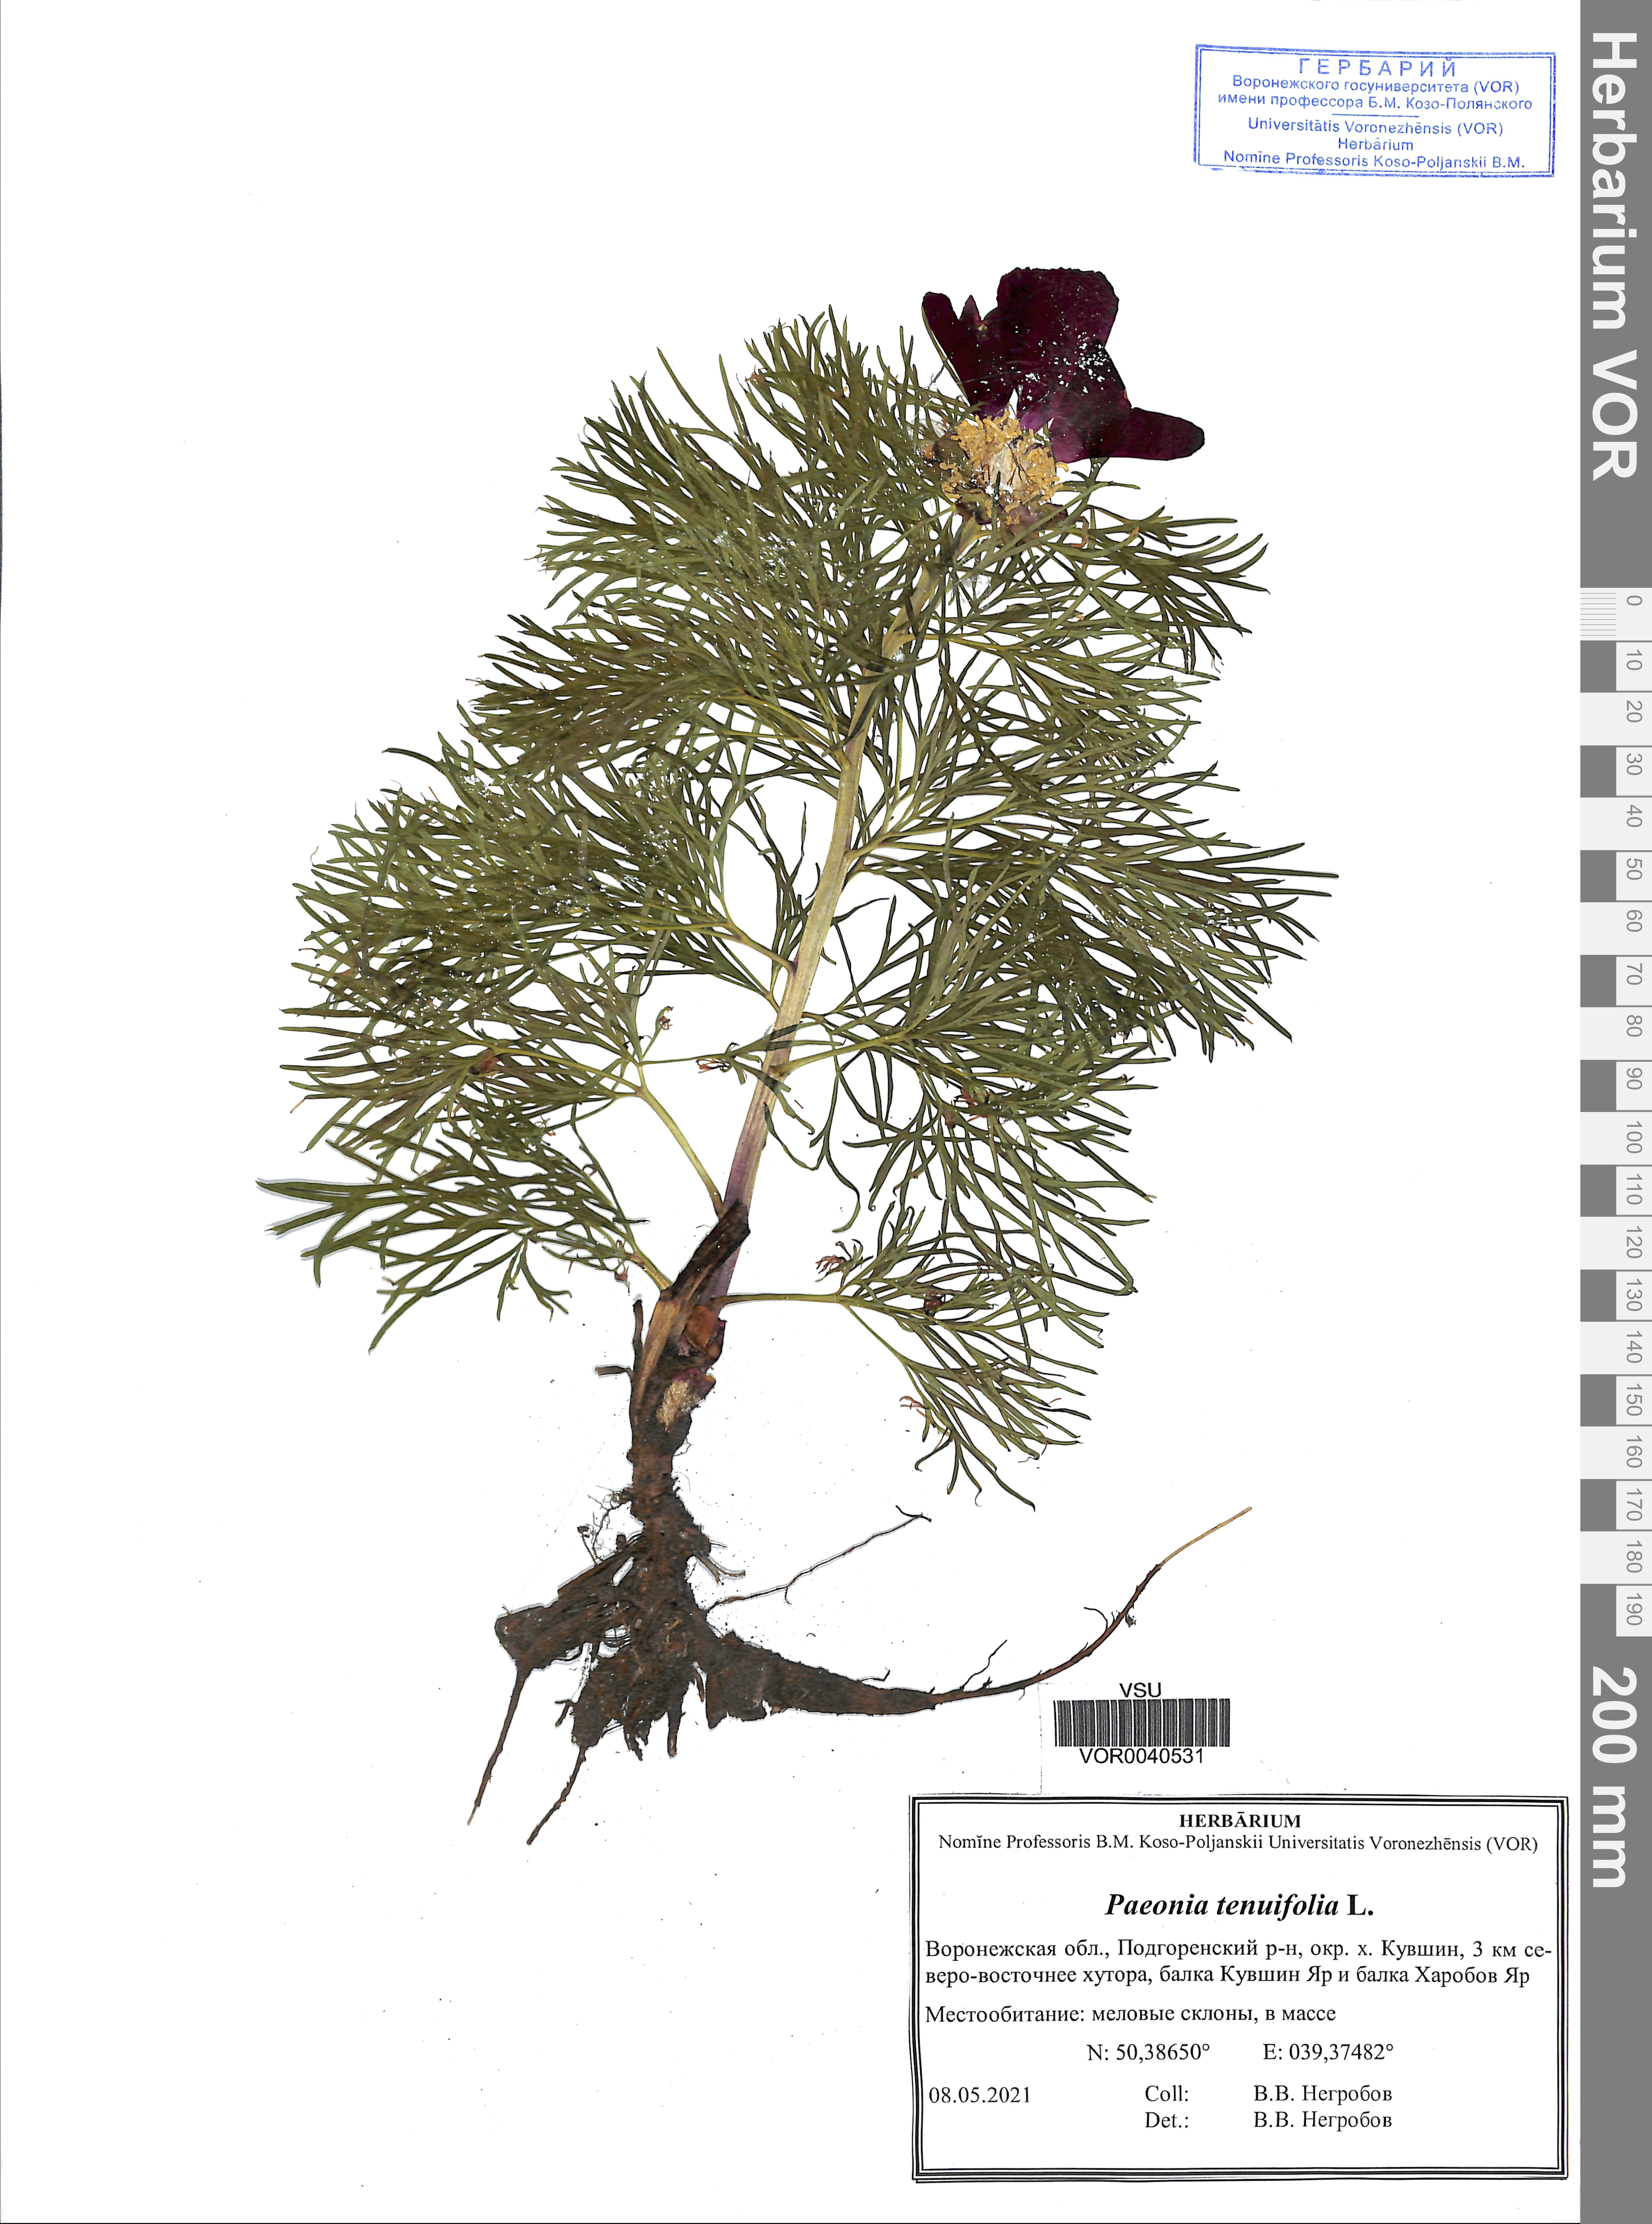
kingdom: Plantae
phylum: Tracheophyta
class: Magnoliopsida
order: Saxifragales
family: Paeoniaceae
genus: Paeonia
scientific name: Paeonia tenuifolia
